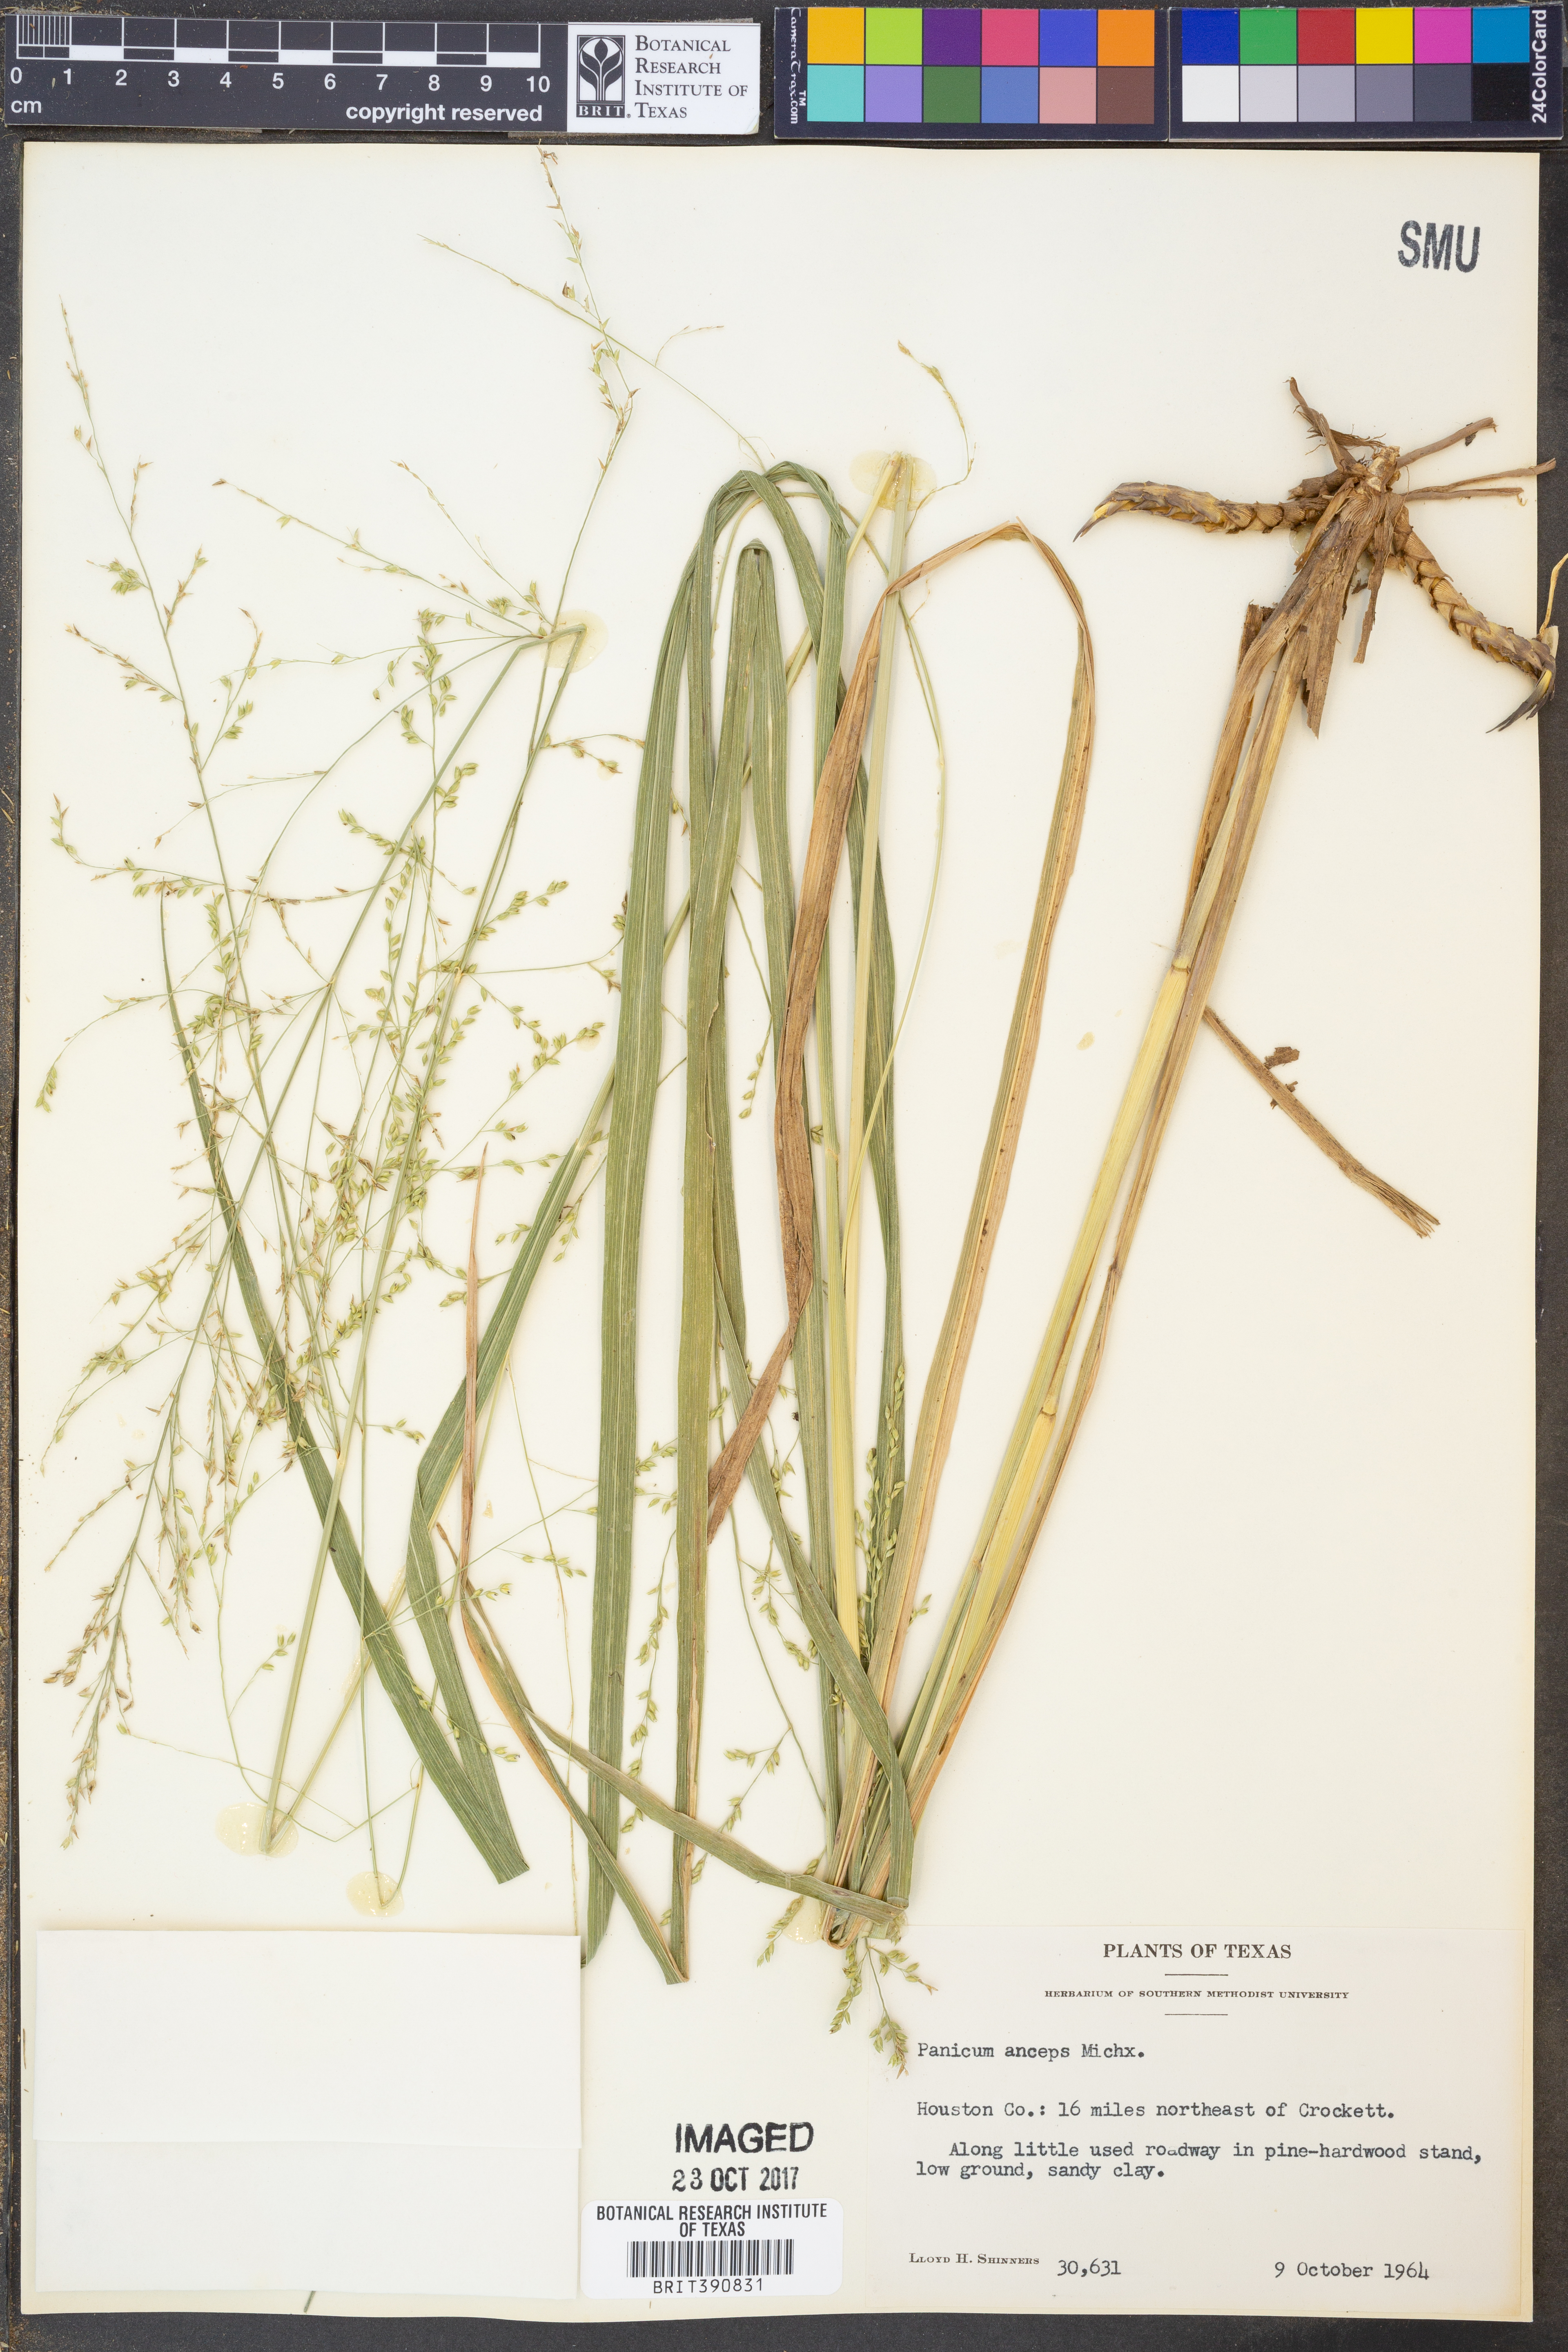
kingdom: Plantae
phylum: Tracheophyta
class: Liliopsida
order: Poales
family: Poaceae
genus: Coleataenia
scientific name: Coleataenia anceps
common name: Beaked panic grass
